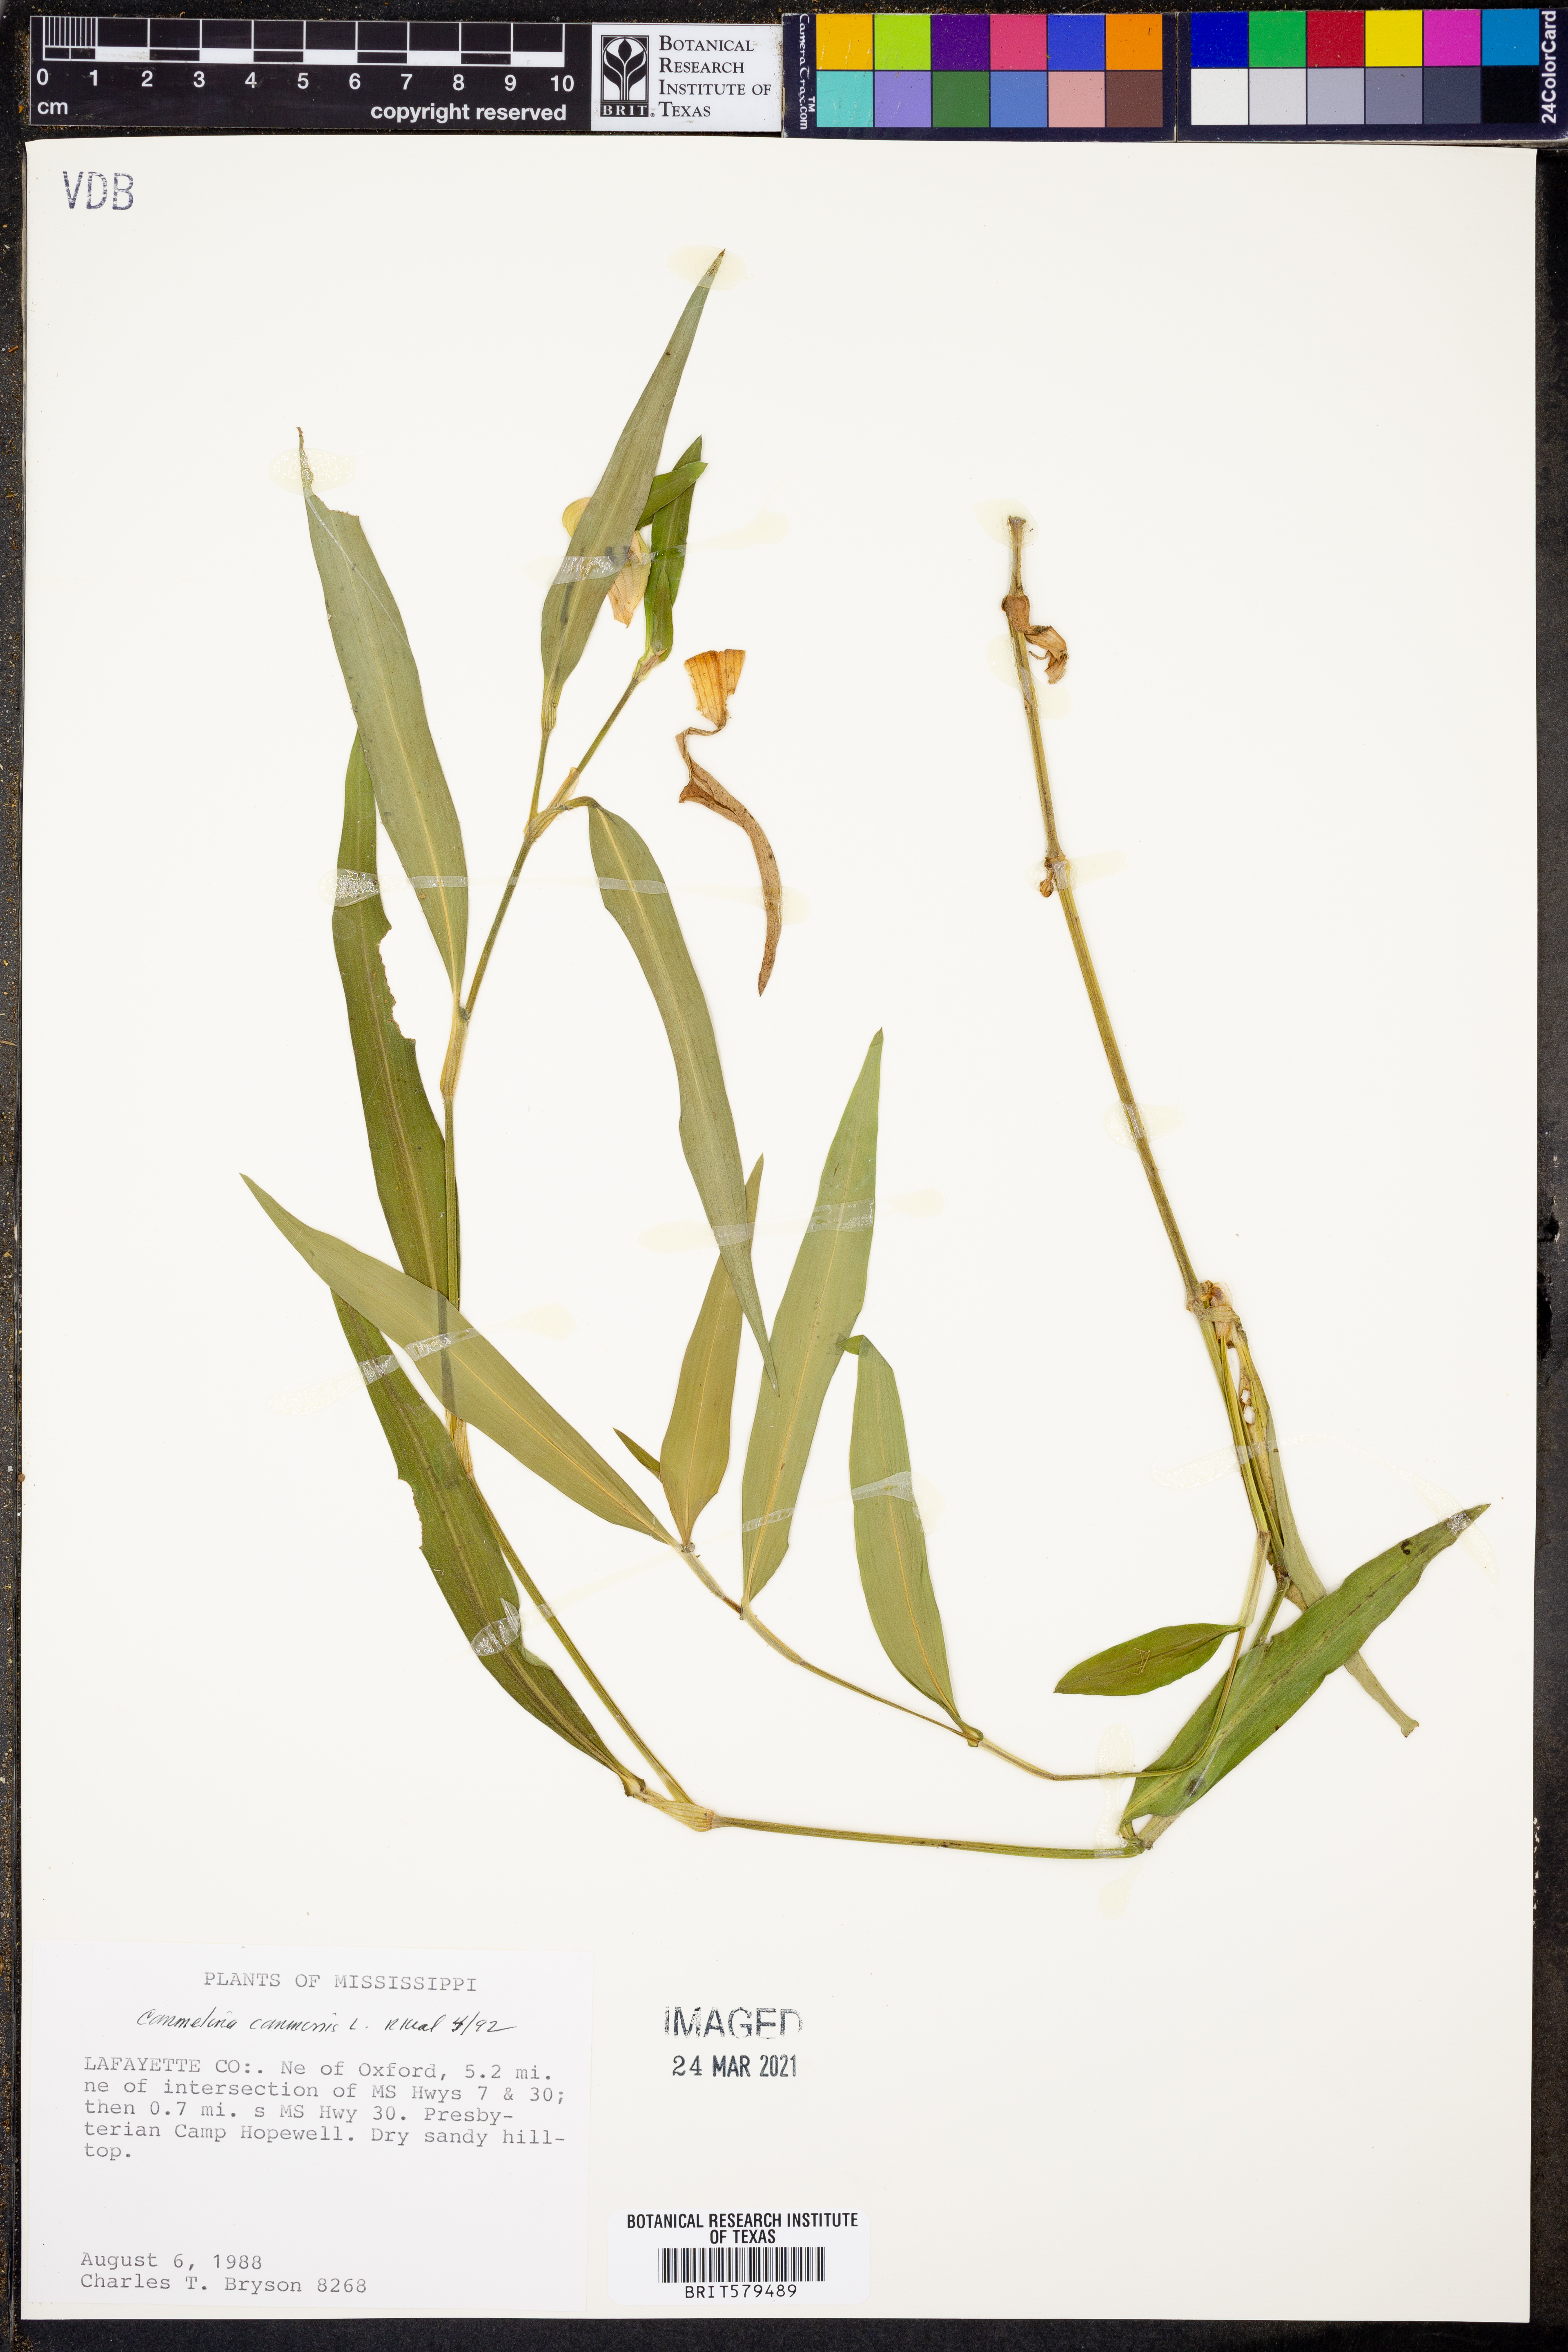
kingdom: Plantae
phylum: Tracheophyta
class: Liliopsida
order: Commelinales
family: Commelinaceae
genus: Commelina
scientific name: Commelina communis
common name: Asiatic dayflower
